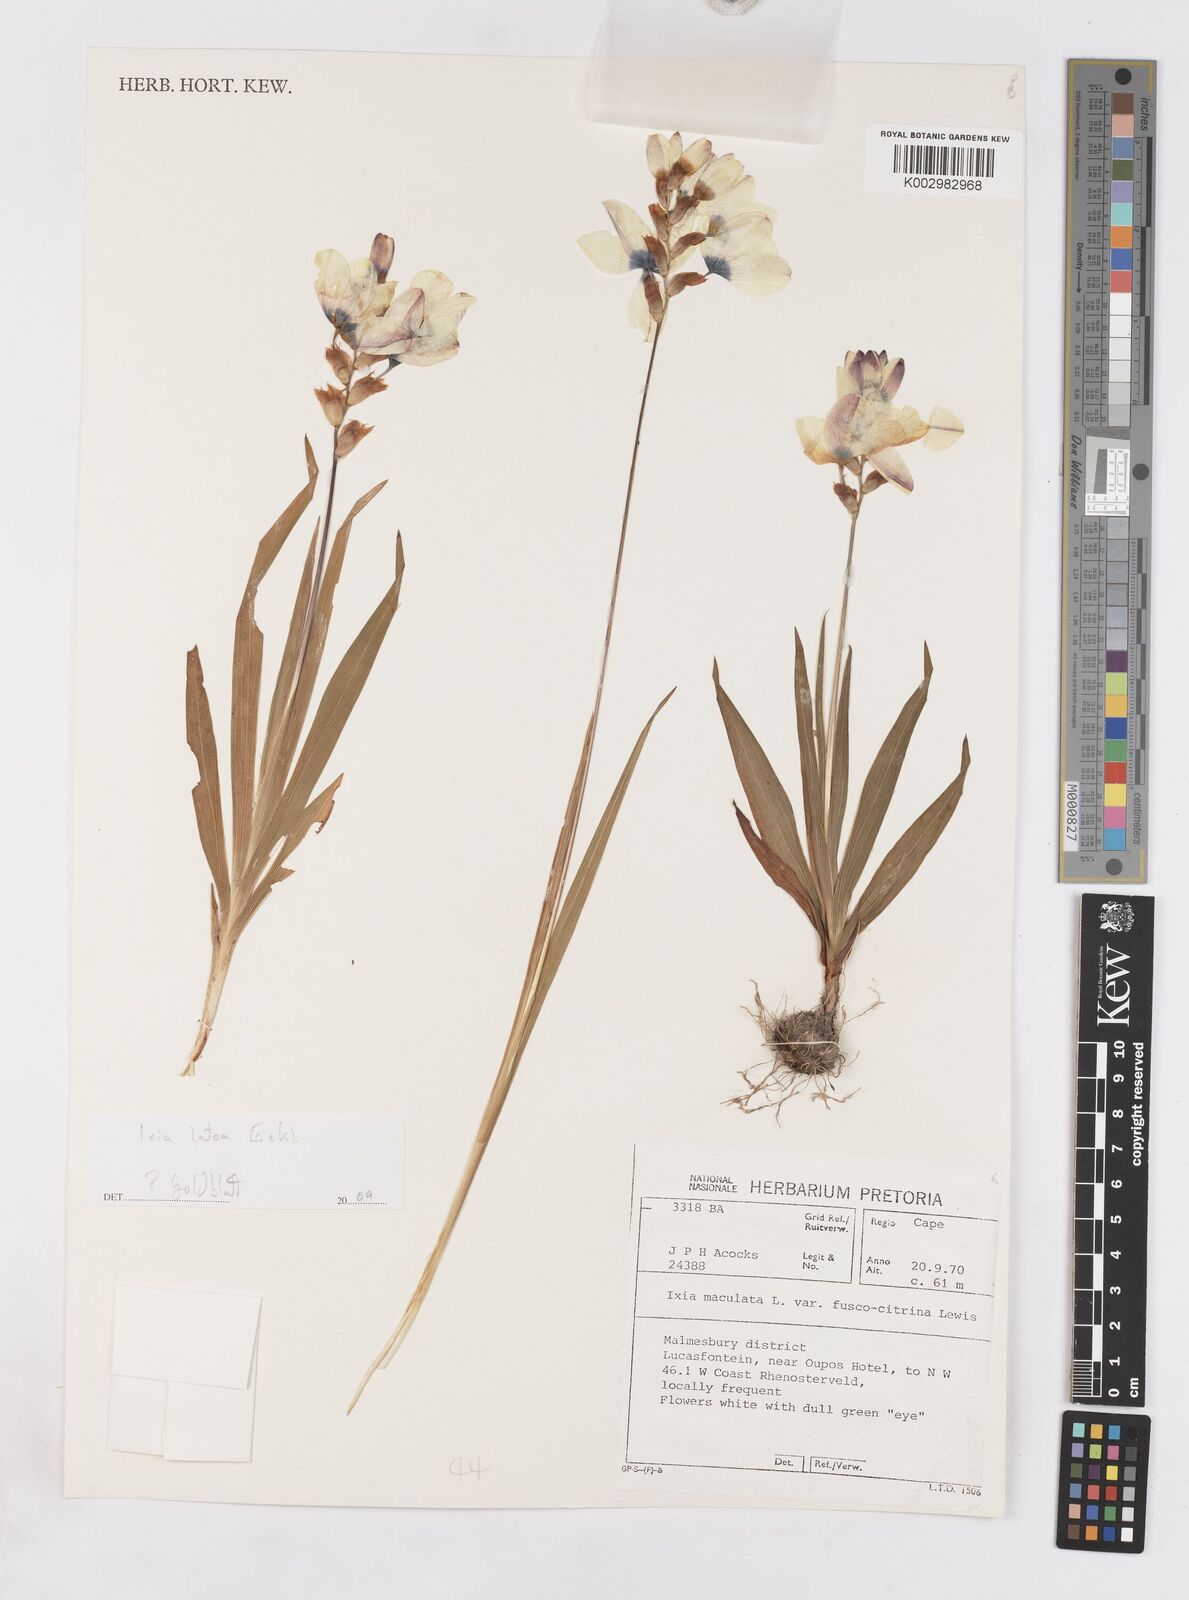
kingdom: Plantae
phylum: Tracheophyta
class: Liliopsida
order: Asparagales
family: Iridaceae
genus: Ixia
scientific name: Ixia abbreviata
